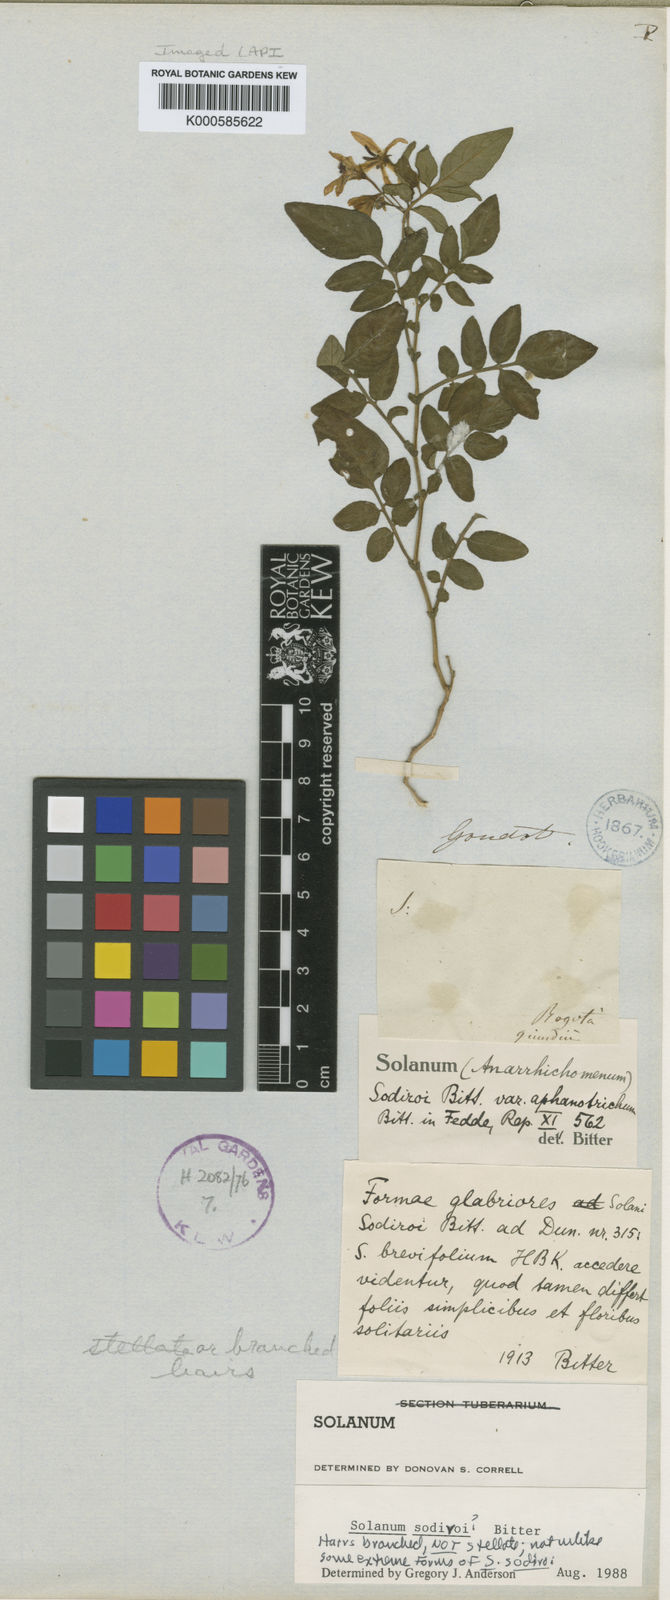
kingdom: Plantae
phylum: Tracheophyta
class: Magnoliopsida
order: Solanales
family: Solanaceae
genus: Solanum
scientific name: Solanum sodiroi
